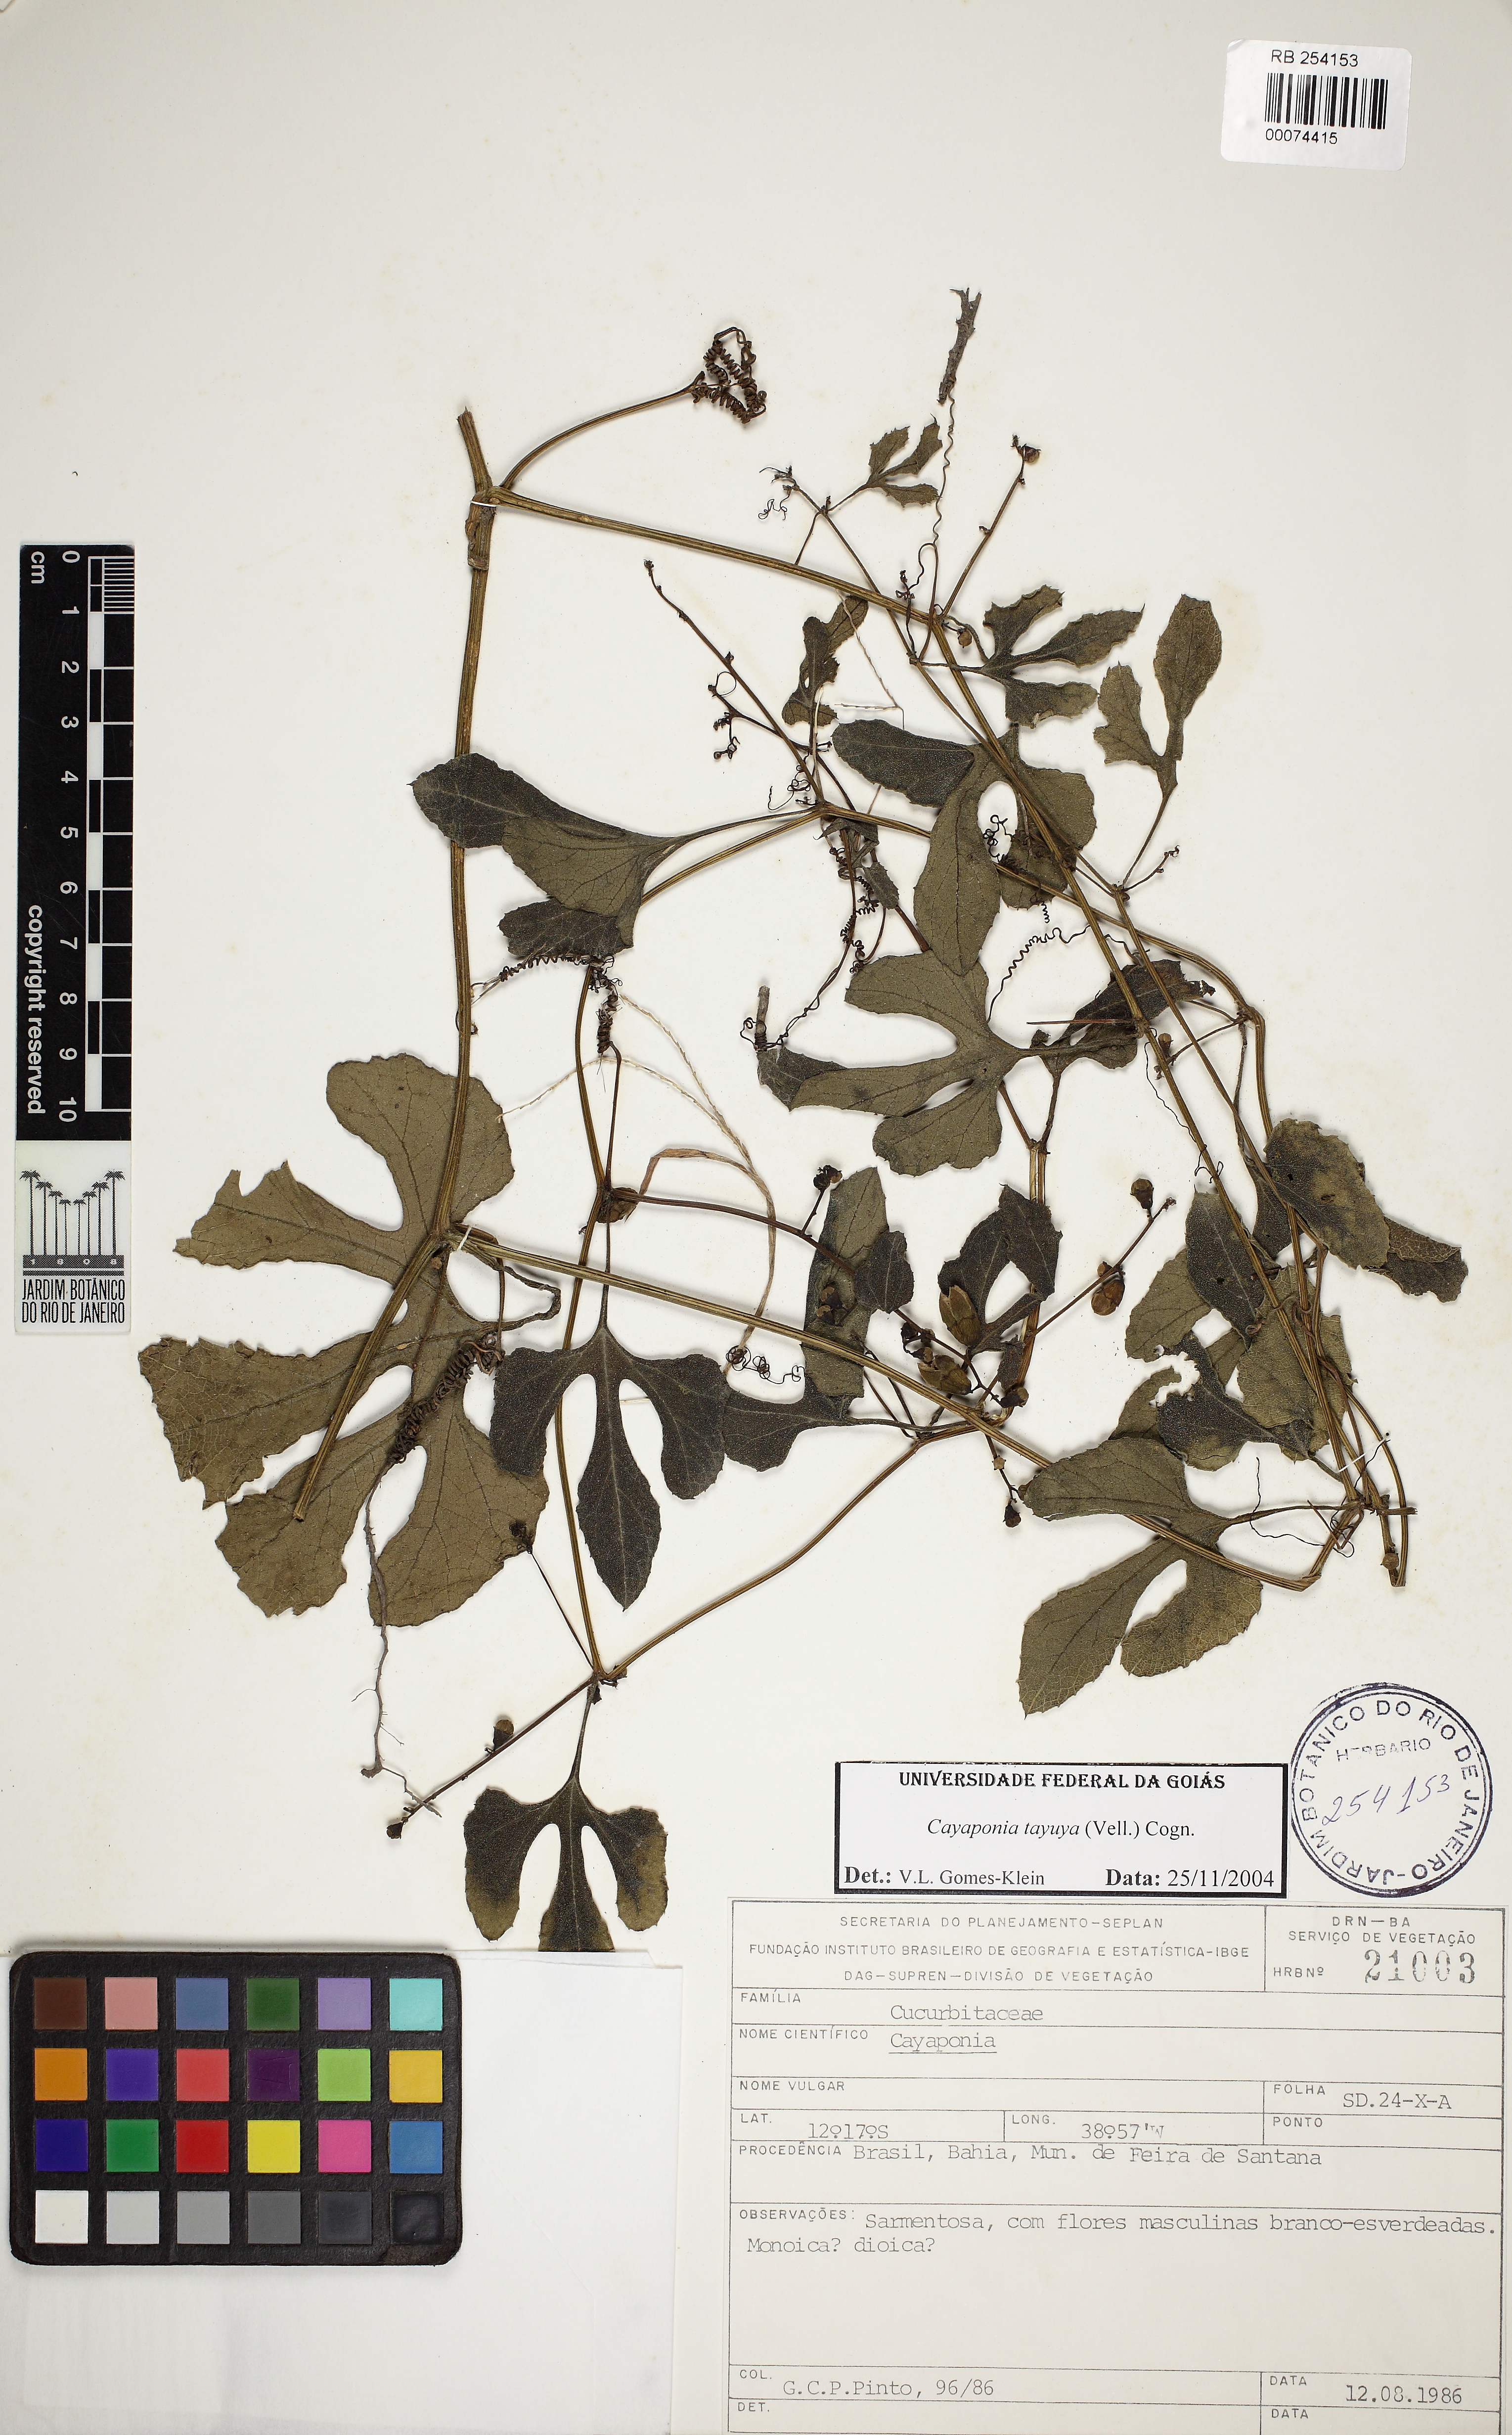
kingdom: Plantae
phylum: Tracheophyta
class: Magnoliopsida
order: Cucurbitales
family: Cucurbitaceae
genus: Cayaponia
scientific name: Cayaponia tayuya
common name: Tayuya
